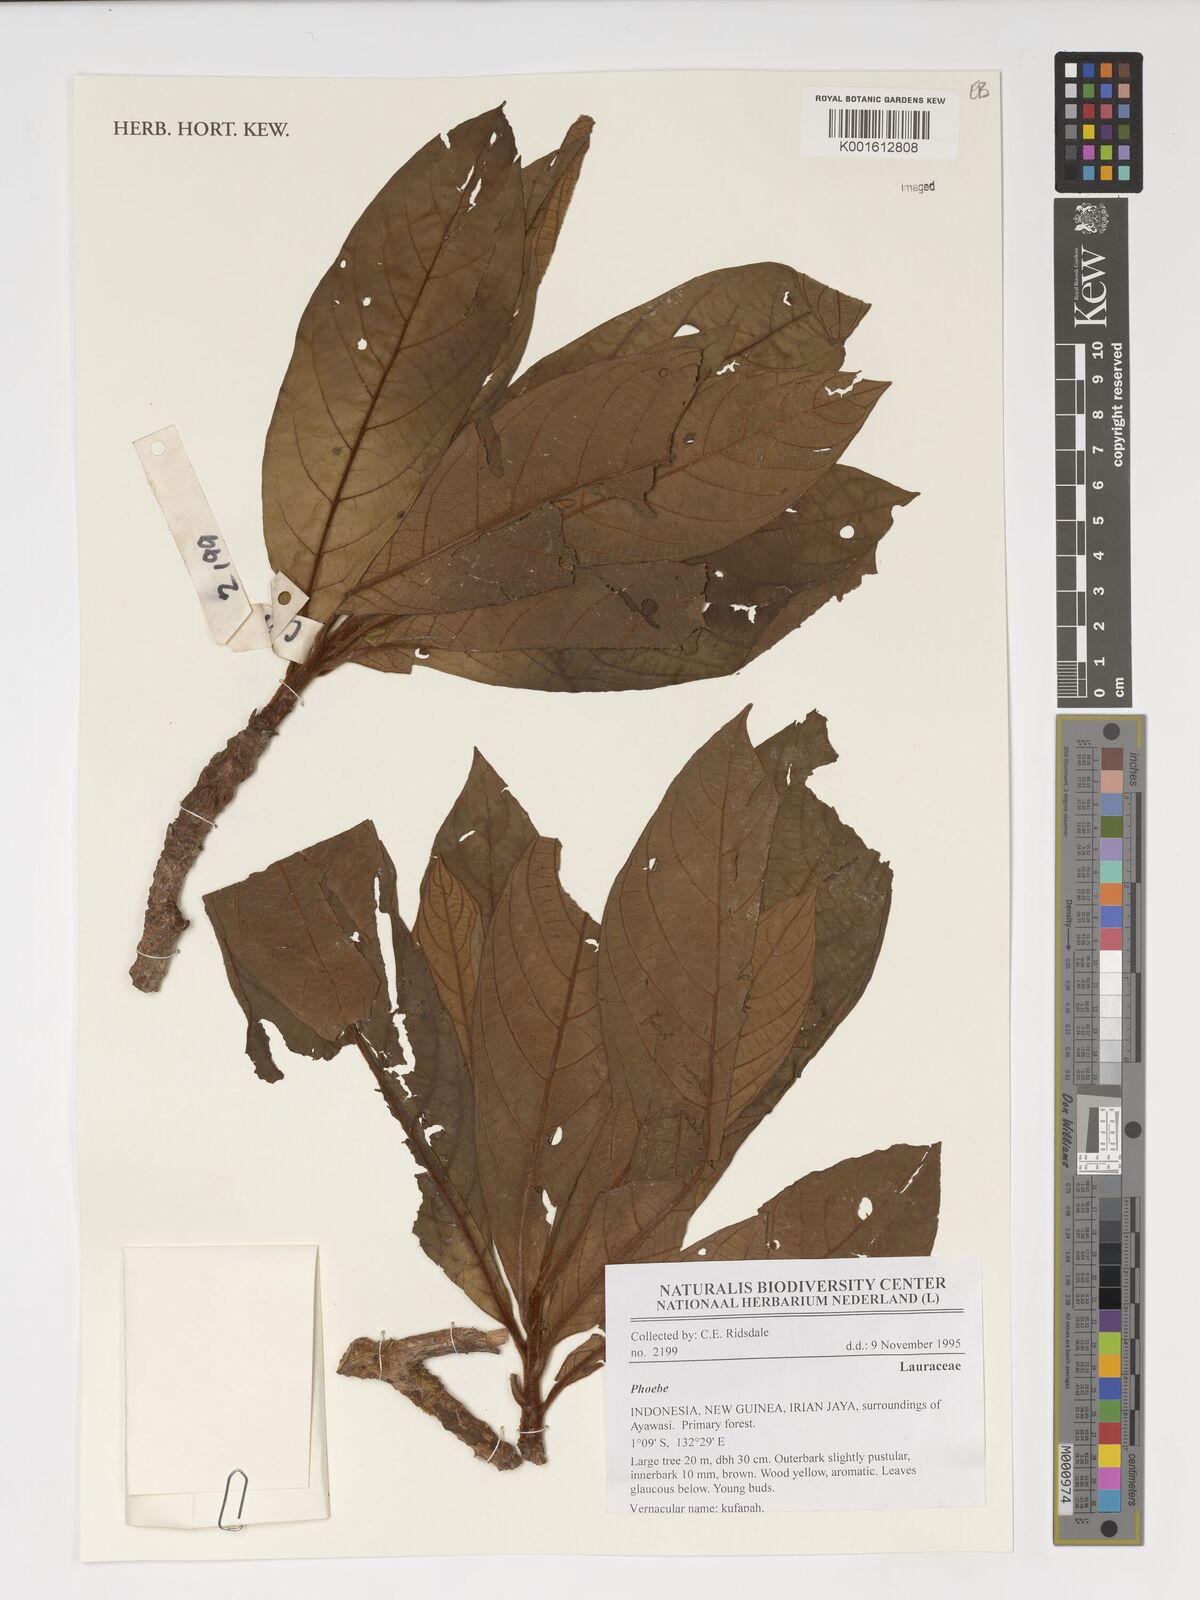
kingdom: Plantae
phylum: Tracheophyta
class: Magnoliopsida
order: Laurales
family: Lauraceae
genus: Phoebe
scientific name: Phoebe
